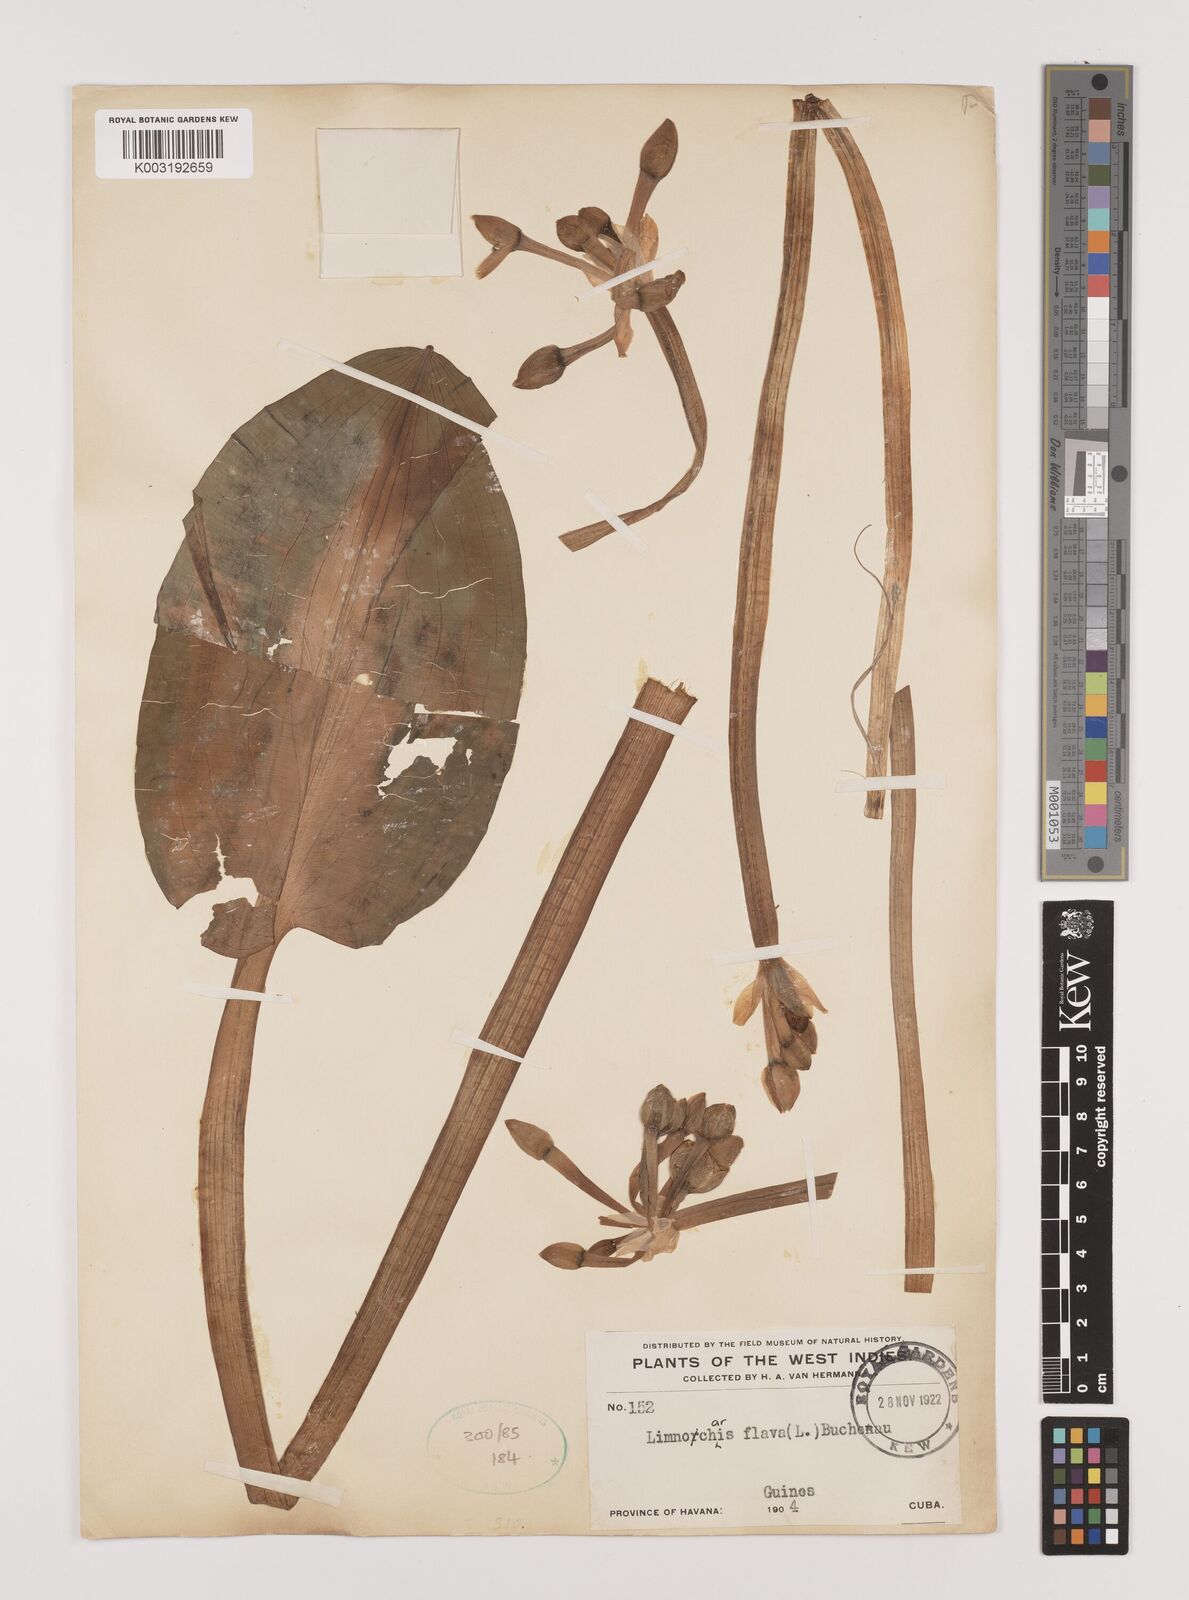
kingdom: Plantae
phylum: Tracheophyta
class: Liliopsida
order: Alismatales
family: Alismataceae
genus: Limnocharis
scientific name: Limnocharis flava
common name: Sawah-flower-rush
